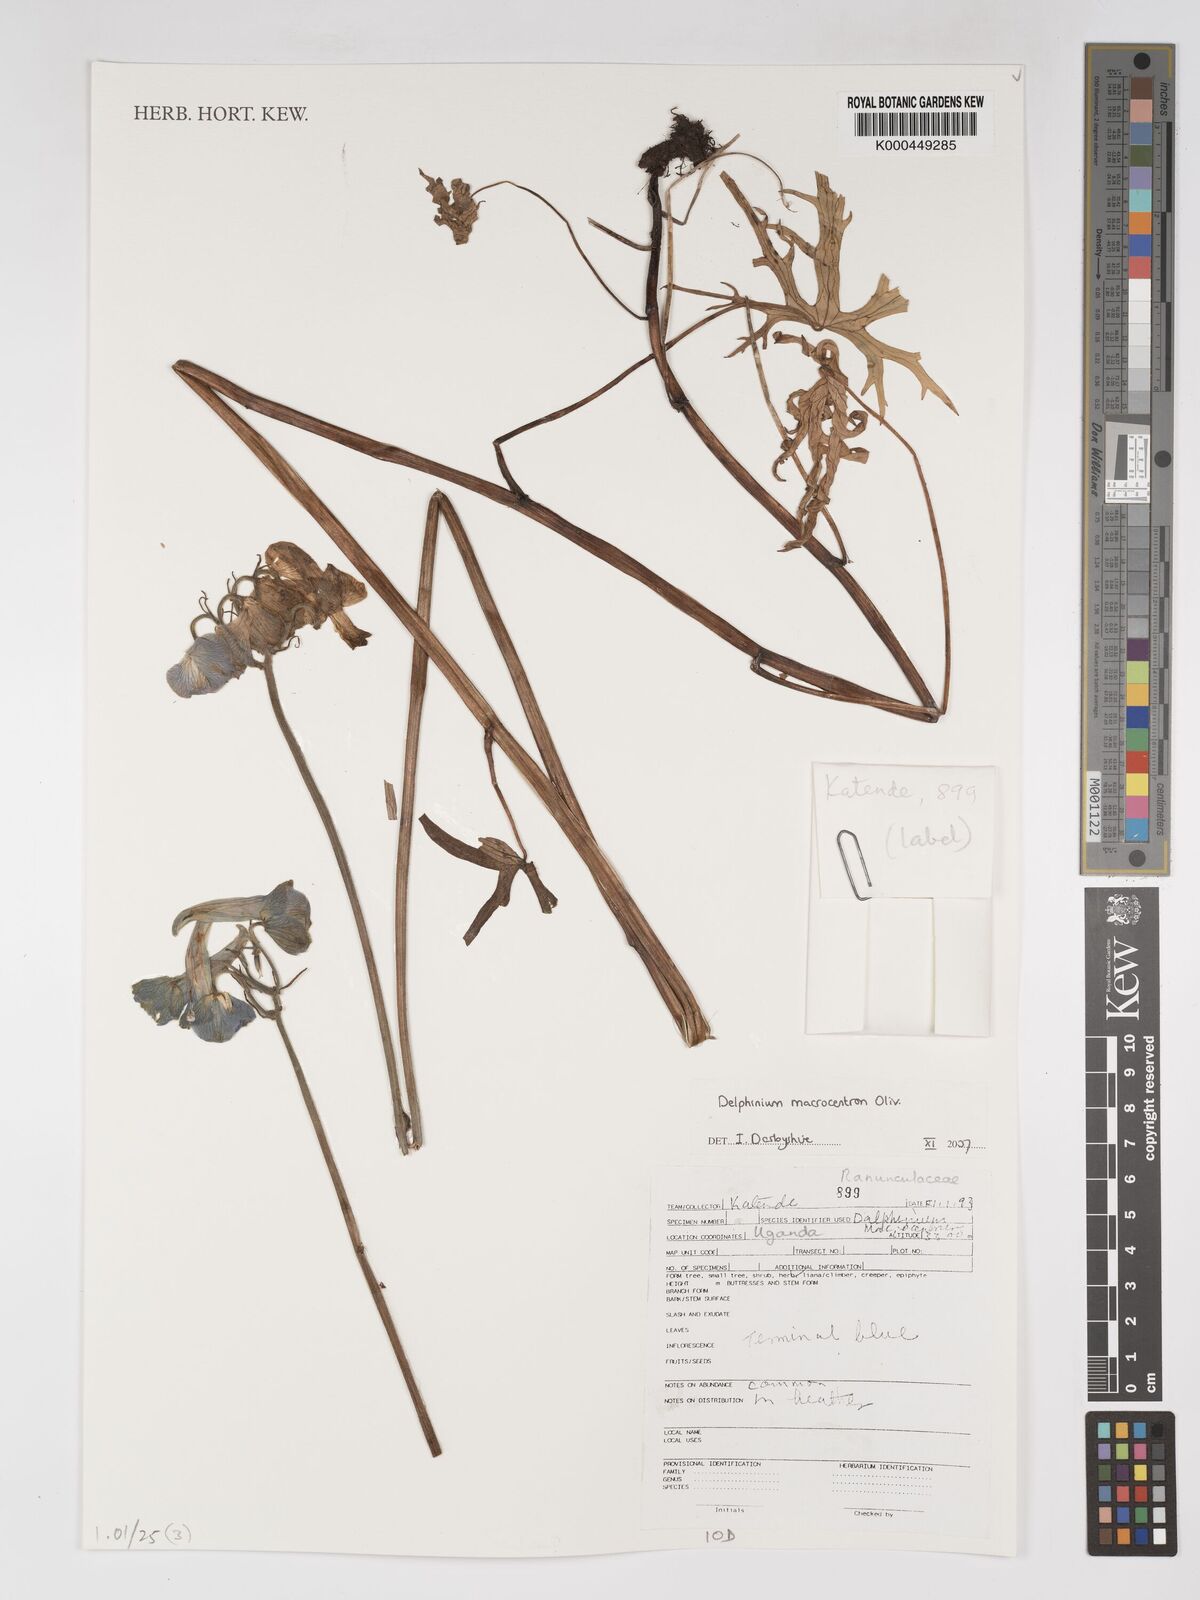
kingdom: Plantae
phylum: Tracheophyta
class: Magnoliopsida
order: Ranunculales
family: Ranunculaceae
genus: Delphinium
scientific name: Delphinium macrocentrum
